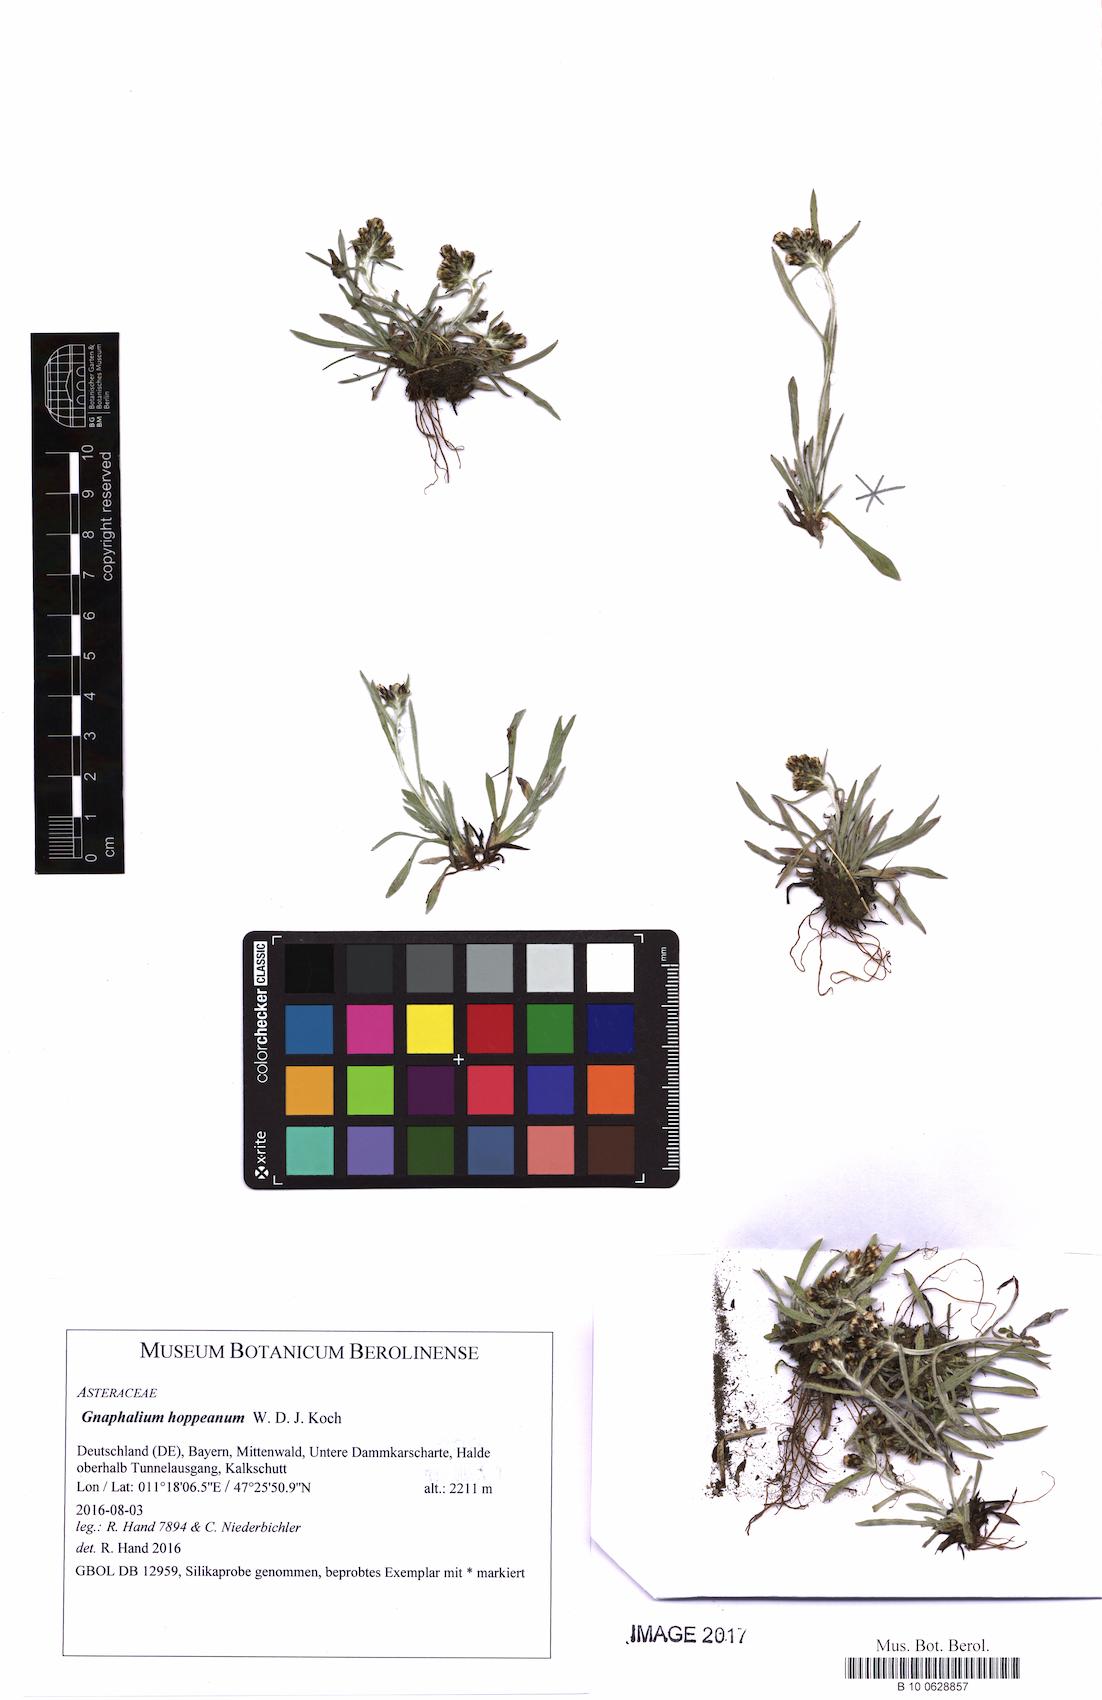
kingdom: Plantae
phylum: Tracheophyta
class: Magnoliopsida
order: Asterales
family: Asteraceae
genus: Omalotheca
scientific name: Omalotheca hoppeana
